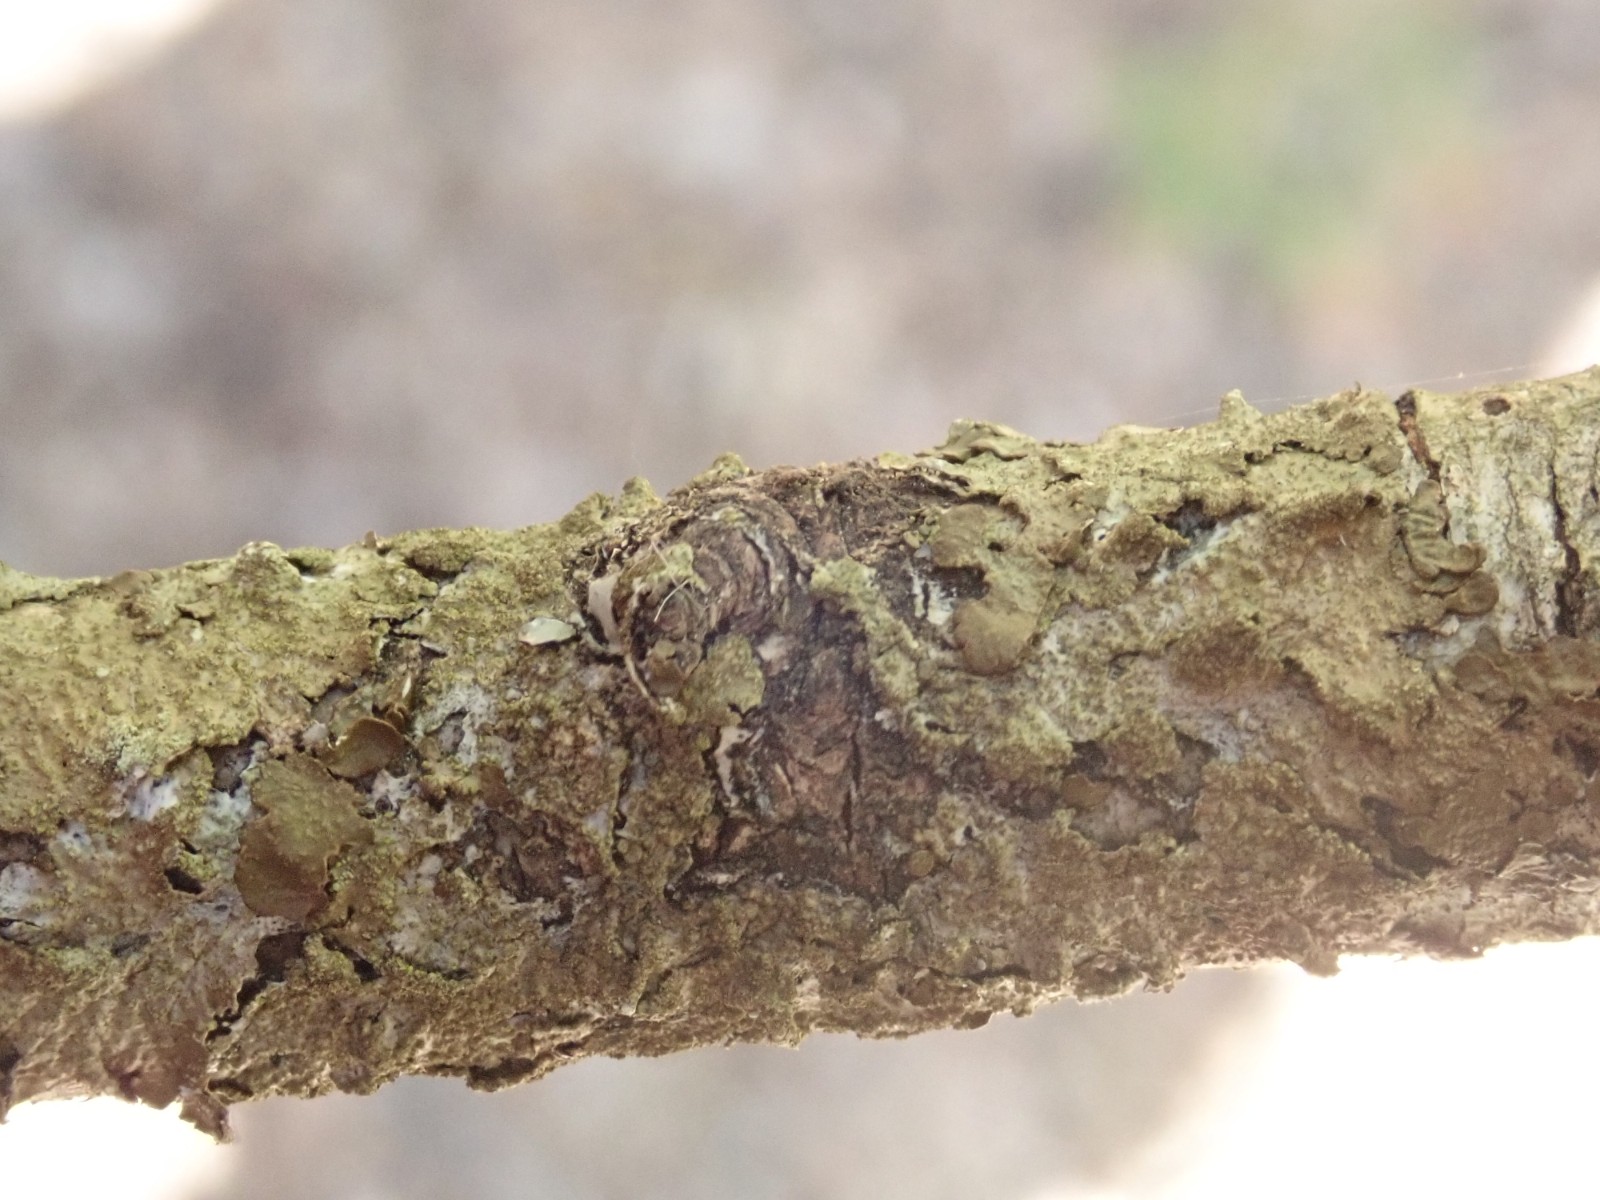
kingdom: Fungi
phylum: Ascomycota
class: Lecanoromycetes
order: Lecanorales
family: Parmeliaceae
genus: Melanelixia
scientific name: Melanelixia subaurifera
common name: guldpudret skållav
